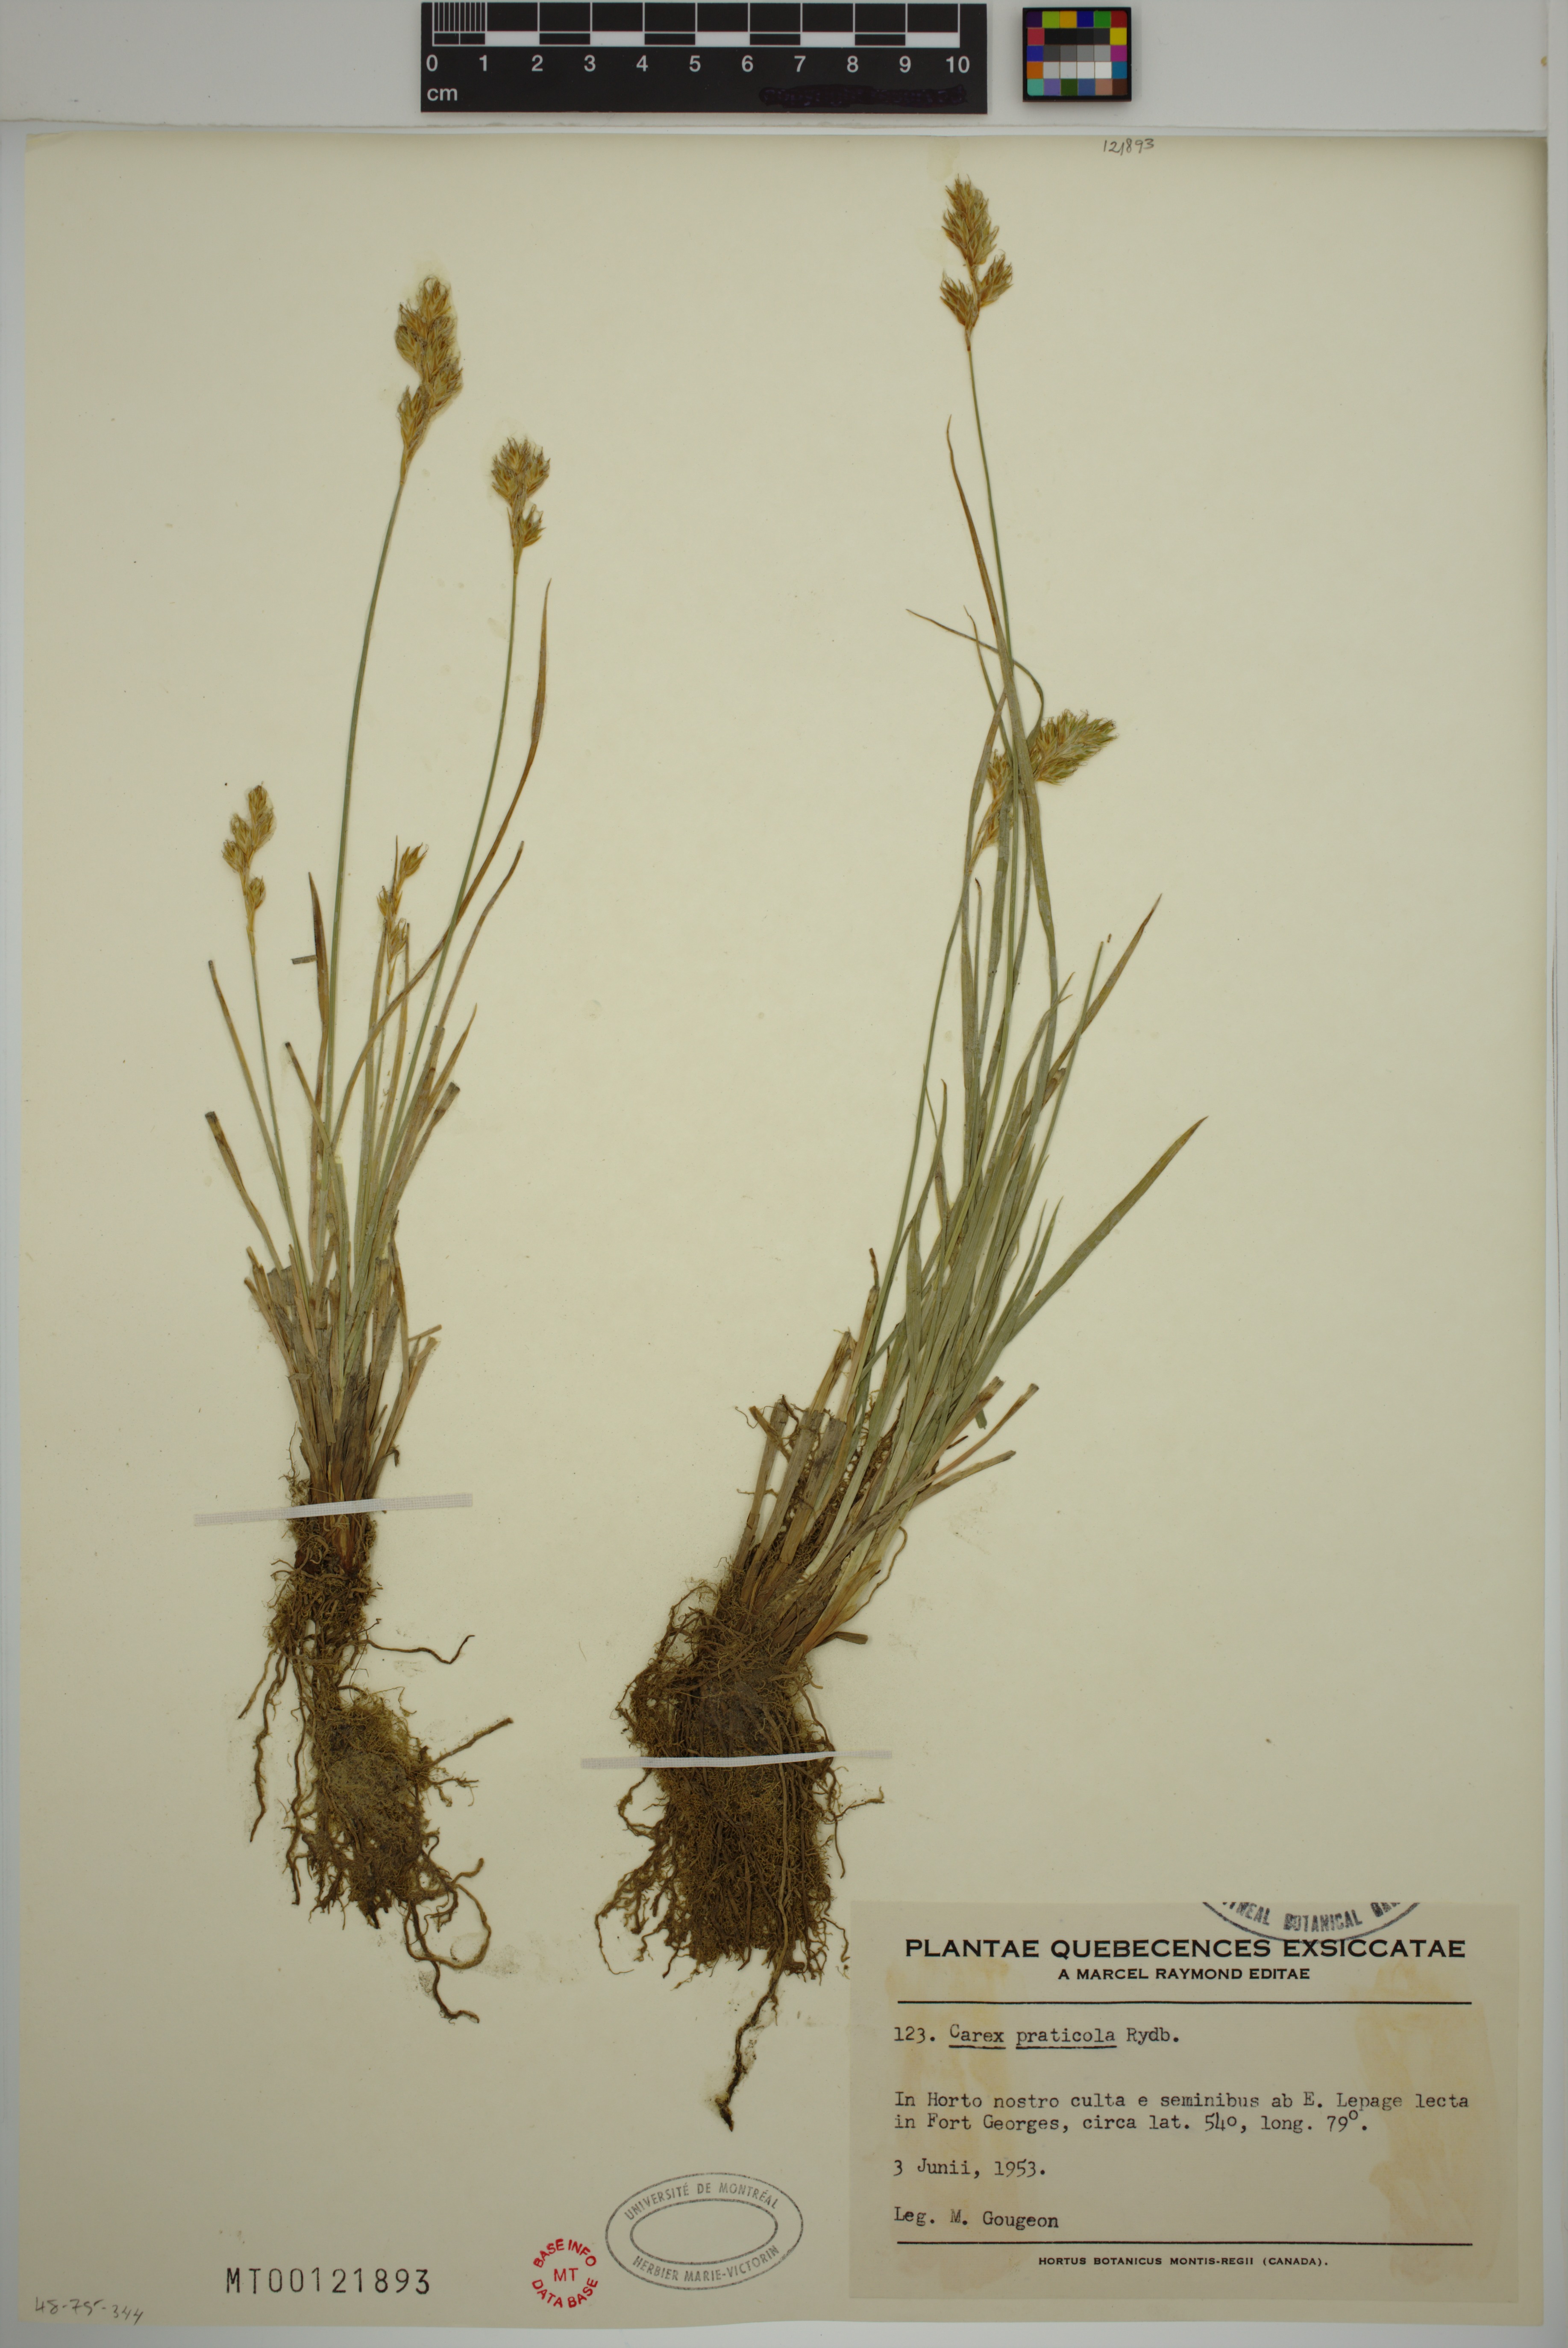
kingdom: Plantae
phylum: Tracheophyta
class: Liliopsida
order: Poales
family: Cyperaceae
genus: Carex
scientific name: Carex praticola
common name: Large-fruited oval sedge
